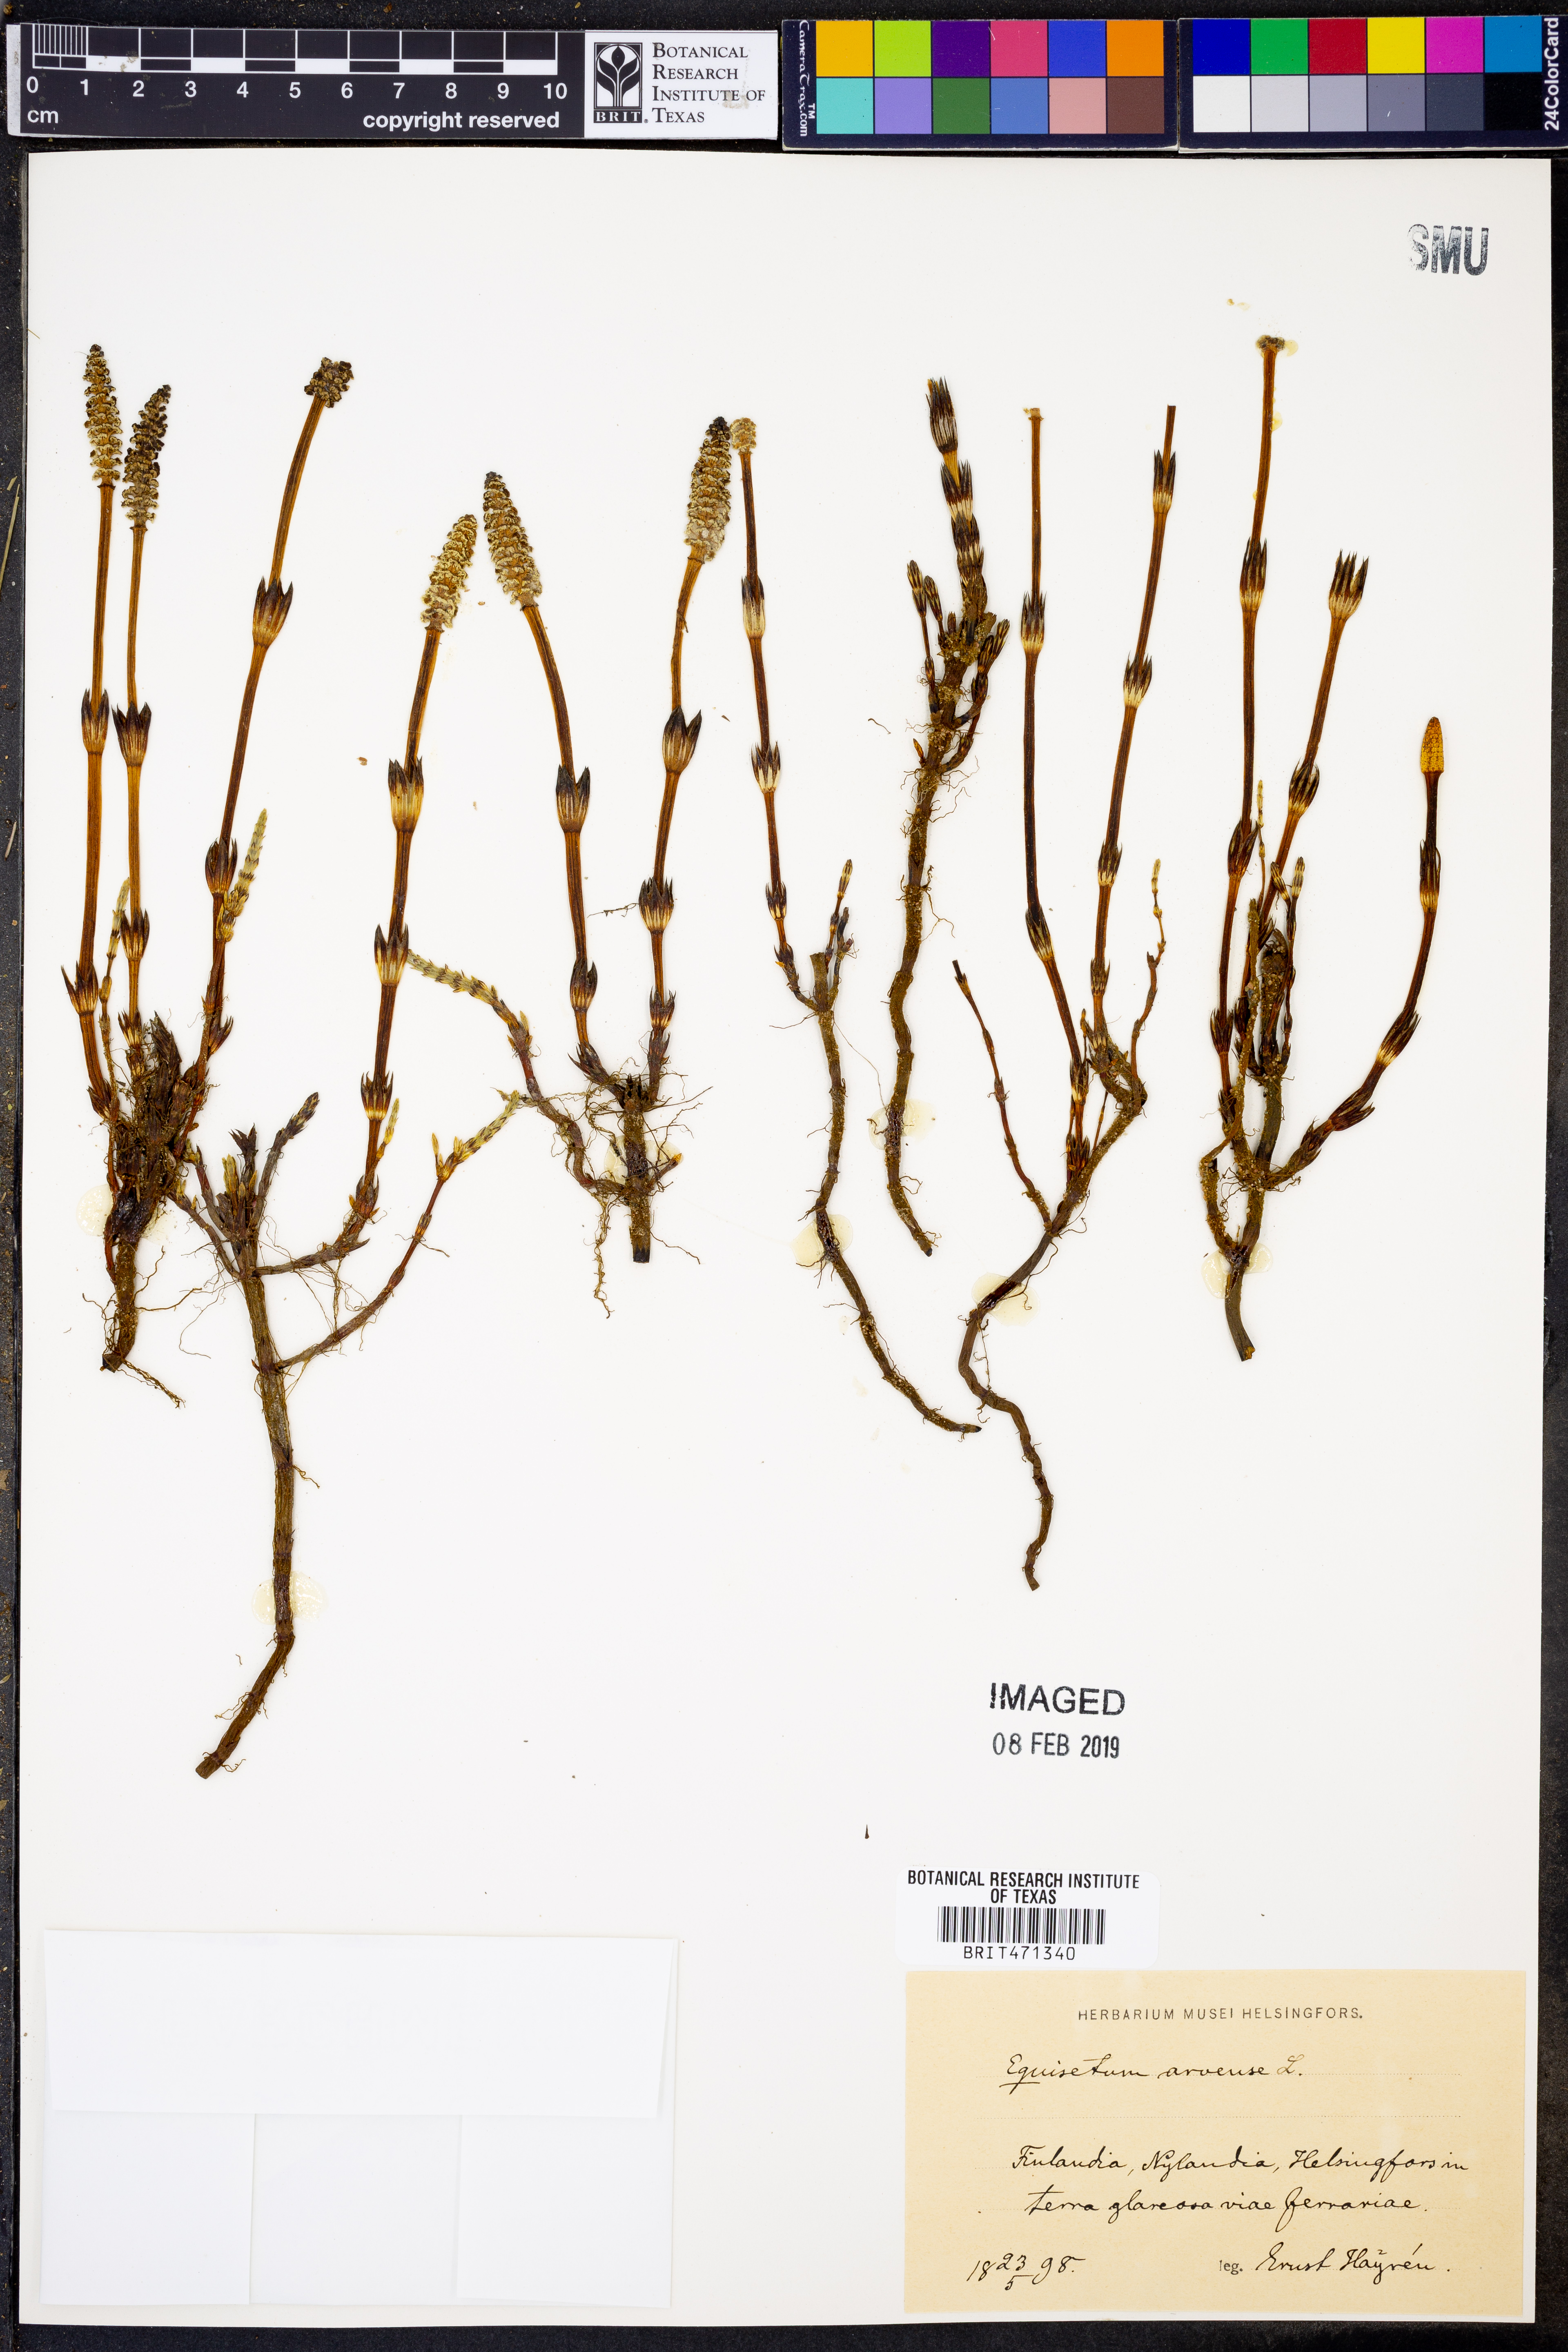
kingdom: Plantae
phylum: Tracheophyta
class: Polypodiopsida
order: Equisetales
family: Equisetaceae
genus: Equisetum
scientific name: Equisetum arvense
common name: Field horsetail
